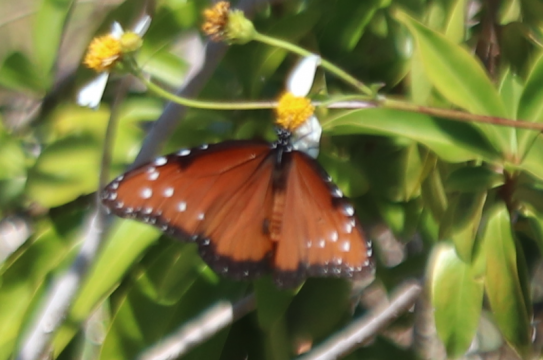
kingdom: Animalia
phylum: Arthropoda
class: Insecta
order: Lepidoptera
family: Nymphalidae
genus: Danaus
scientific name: Danaus gilippus
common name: Queen
